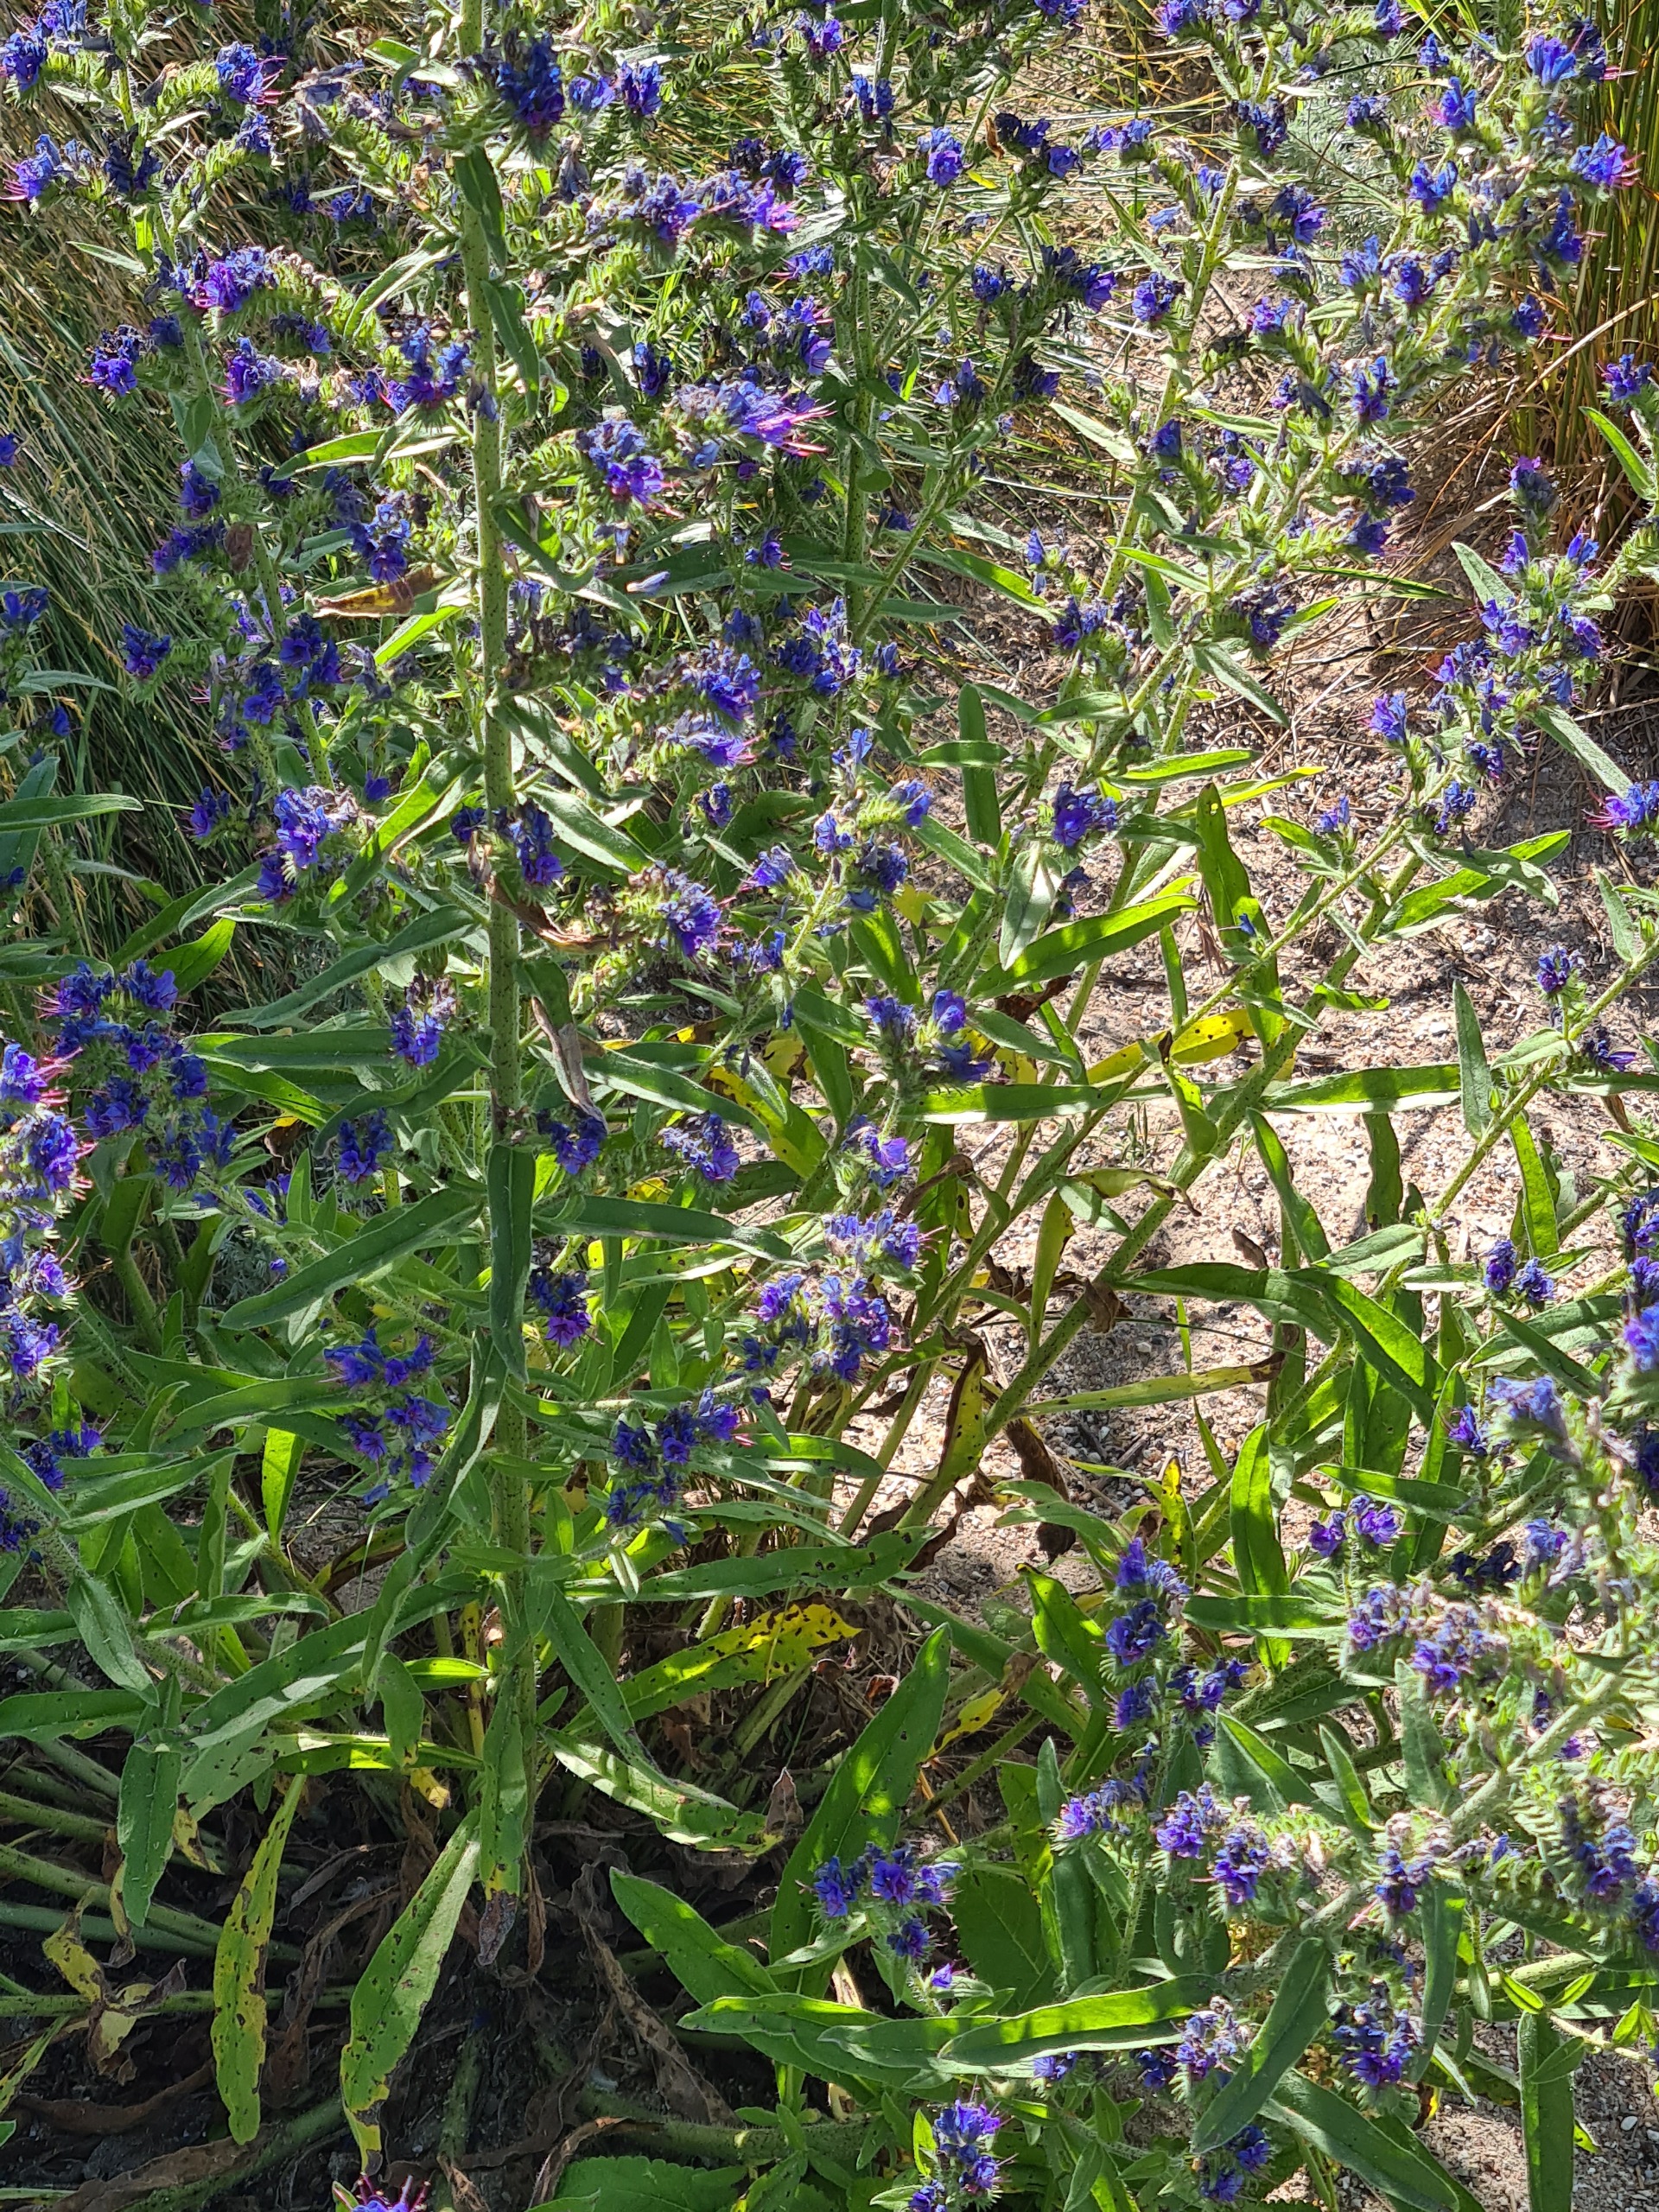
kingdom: Plantae
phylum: Tracheophyta
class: Magnoliopsida
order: Boraginales
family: Boraginaceae
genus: Echium
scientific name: Echium vulgare
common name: Slangehoved
